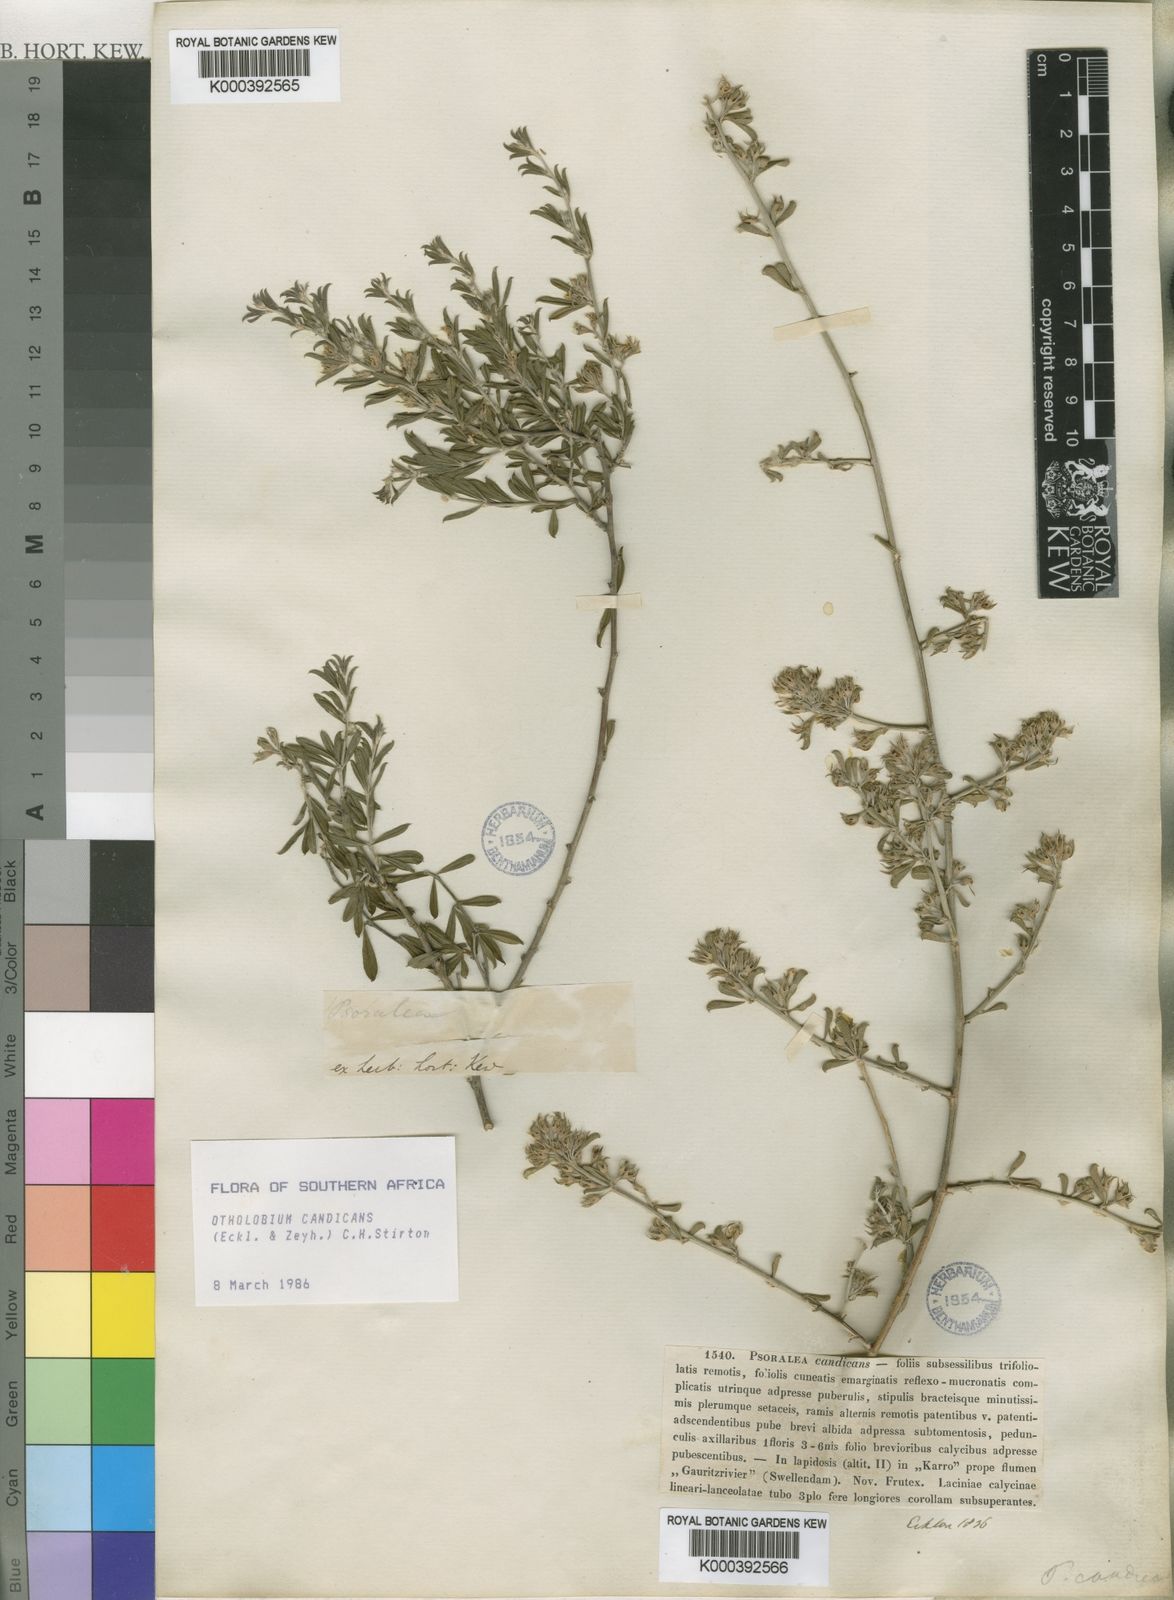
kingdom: Plantae
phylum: Tracheophyta
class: Magnoliopsida
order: Fabales
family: Fabaceae
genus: Psoralea
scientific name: Psoralea candicans
